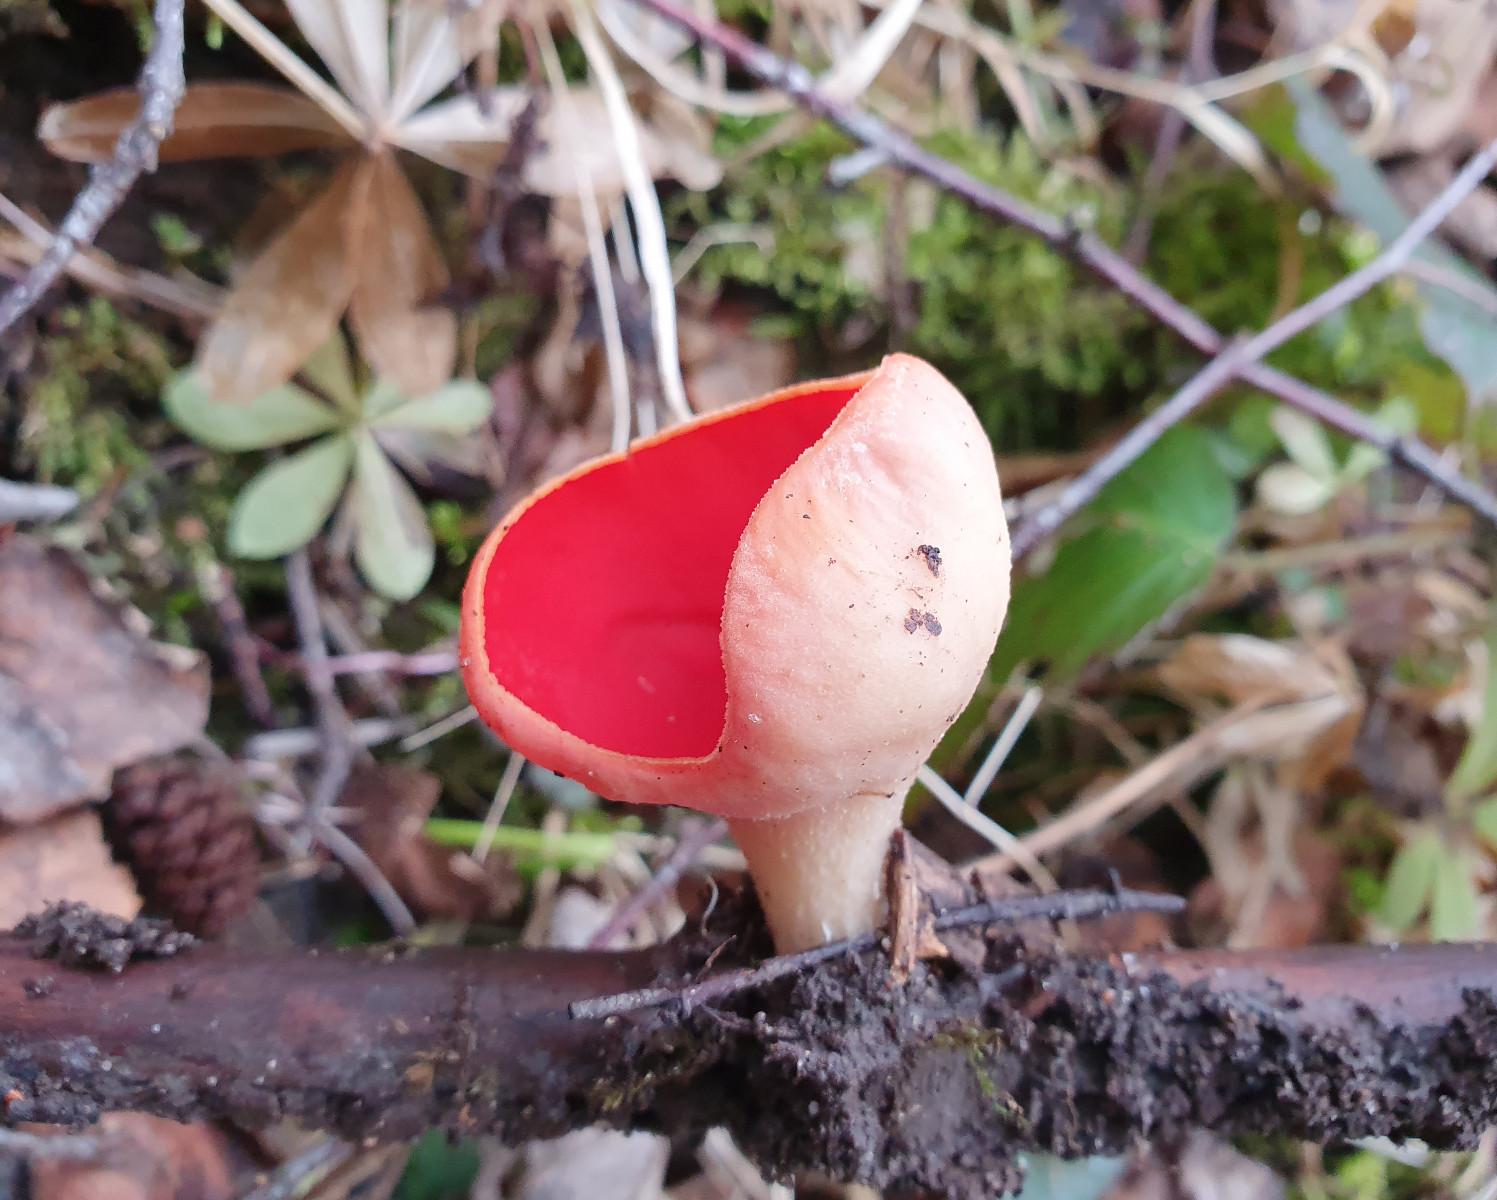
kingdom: Fungi
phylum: Ascomycota
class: Pezizomycetes
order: Pezizales
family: Sarcoscyphaceae
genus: Sarcoscypha
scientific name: Sarcoscypha austriaca
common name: krølhåret pragtbæger
